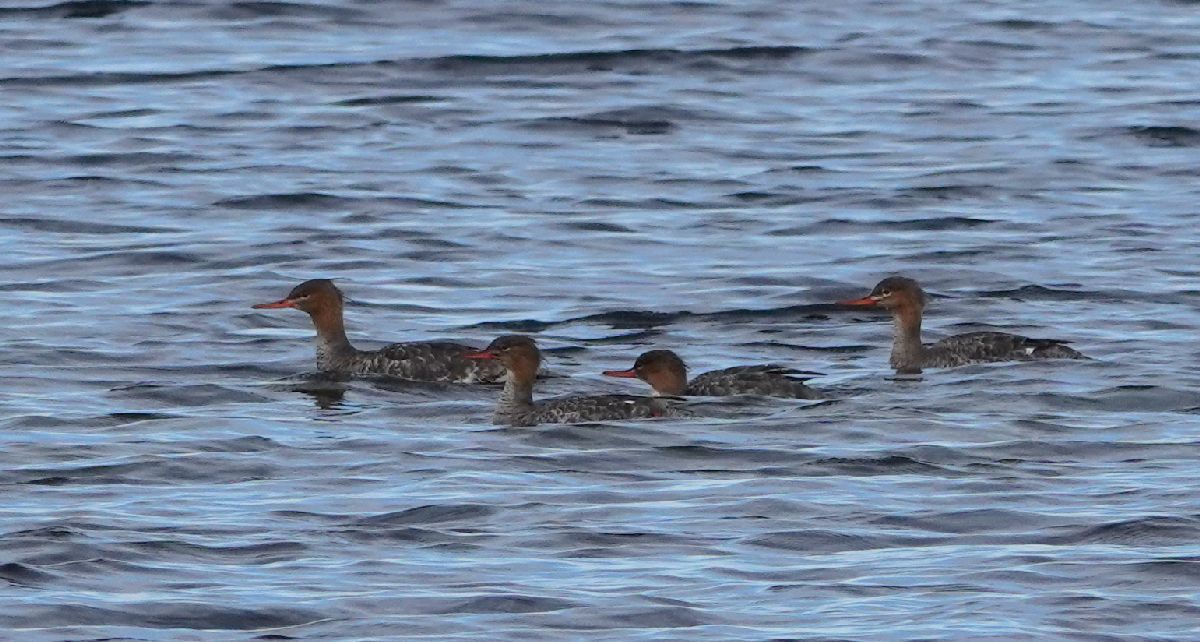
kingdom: Animalia
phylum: Chordata
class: Aves
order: Anseriformes
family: Anatidae
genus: Mergus
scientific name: Mergus serrator
